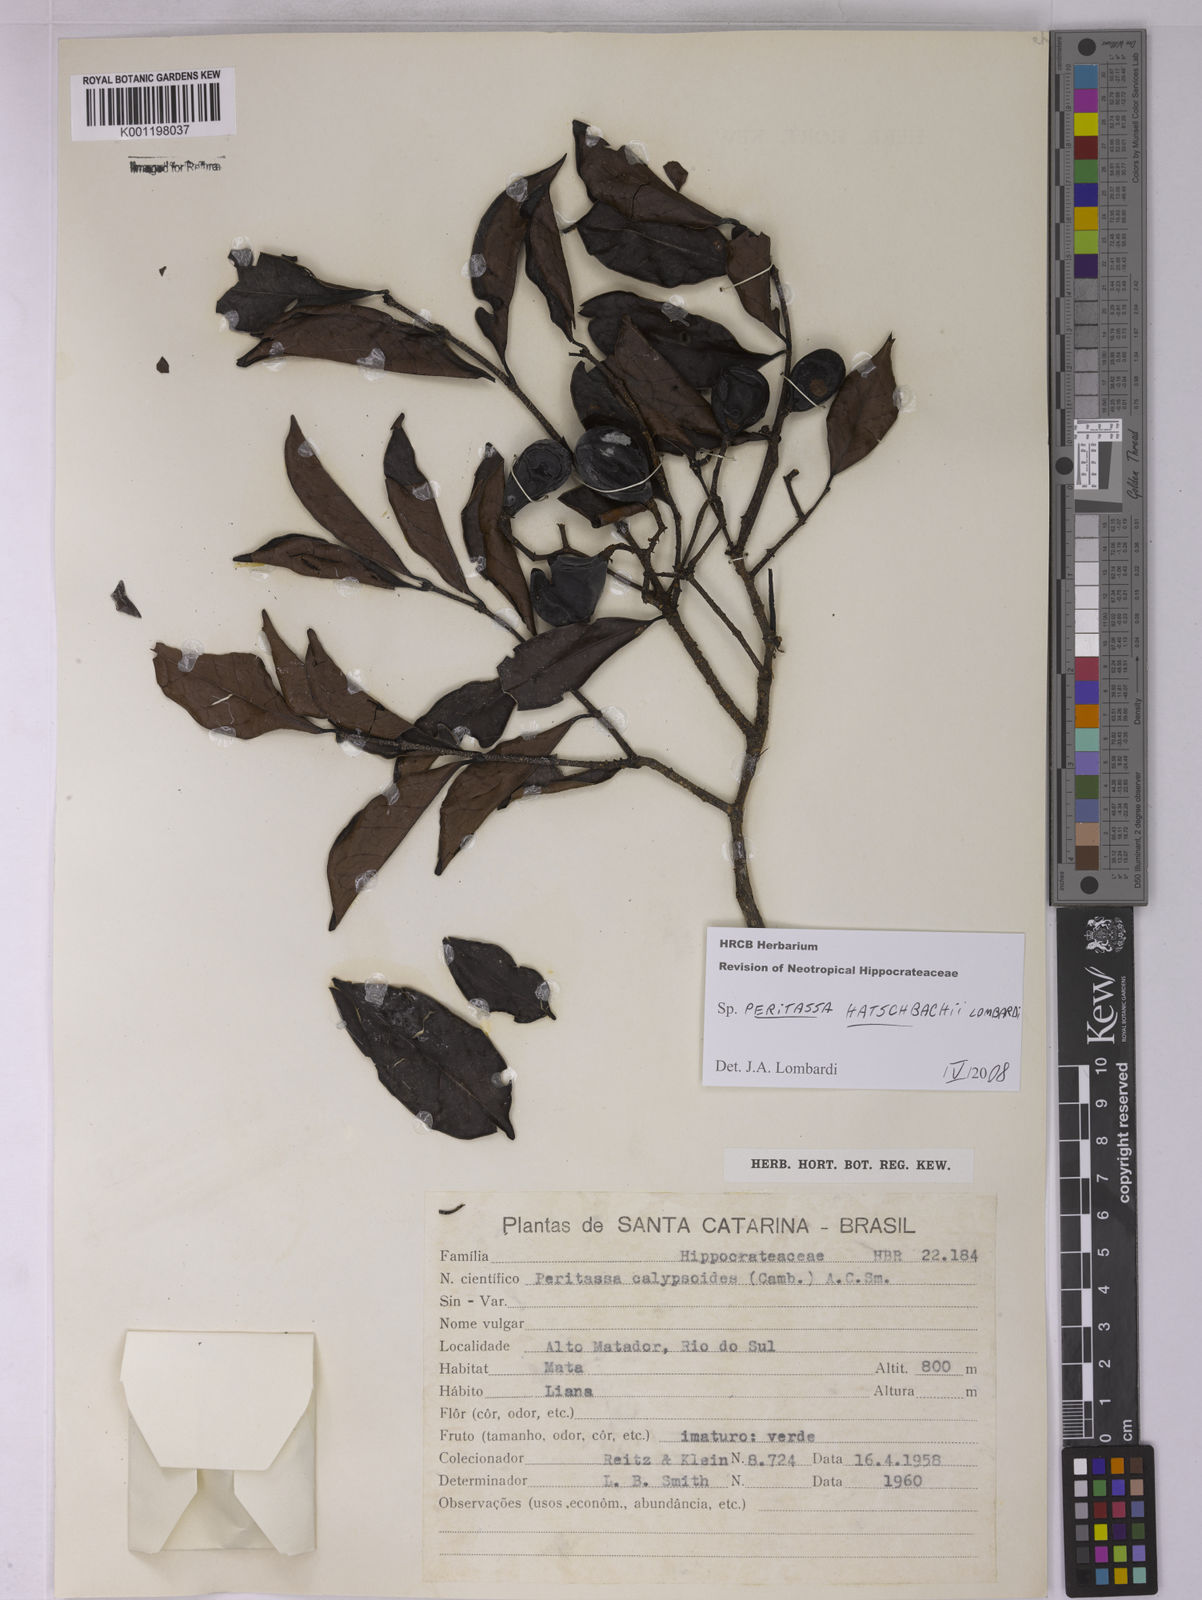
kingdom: Plantae
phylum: Tracheophyta
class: Magnoliopsida
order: Celastrales
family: Celastraceae
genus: Peritassa
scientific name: Peritassa hatschbachii
